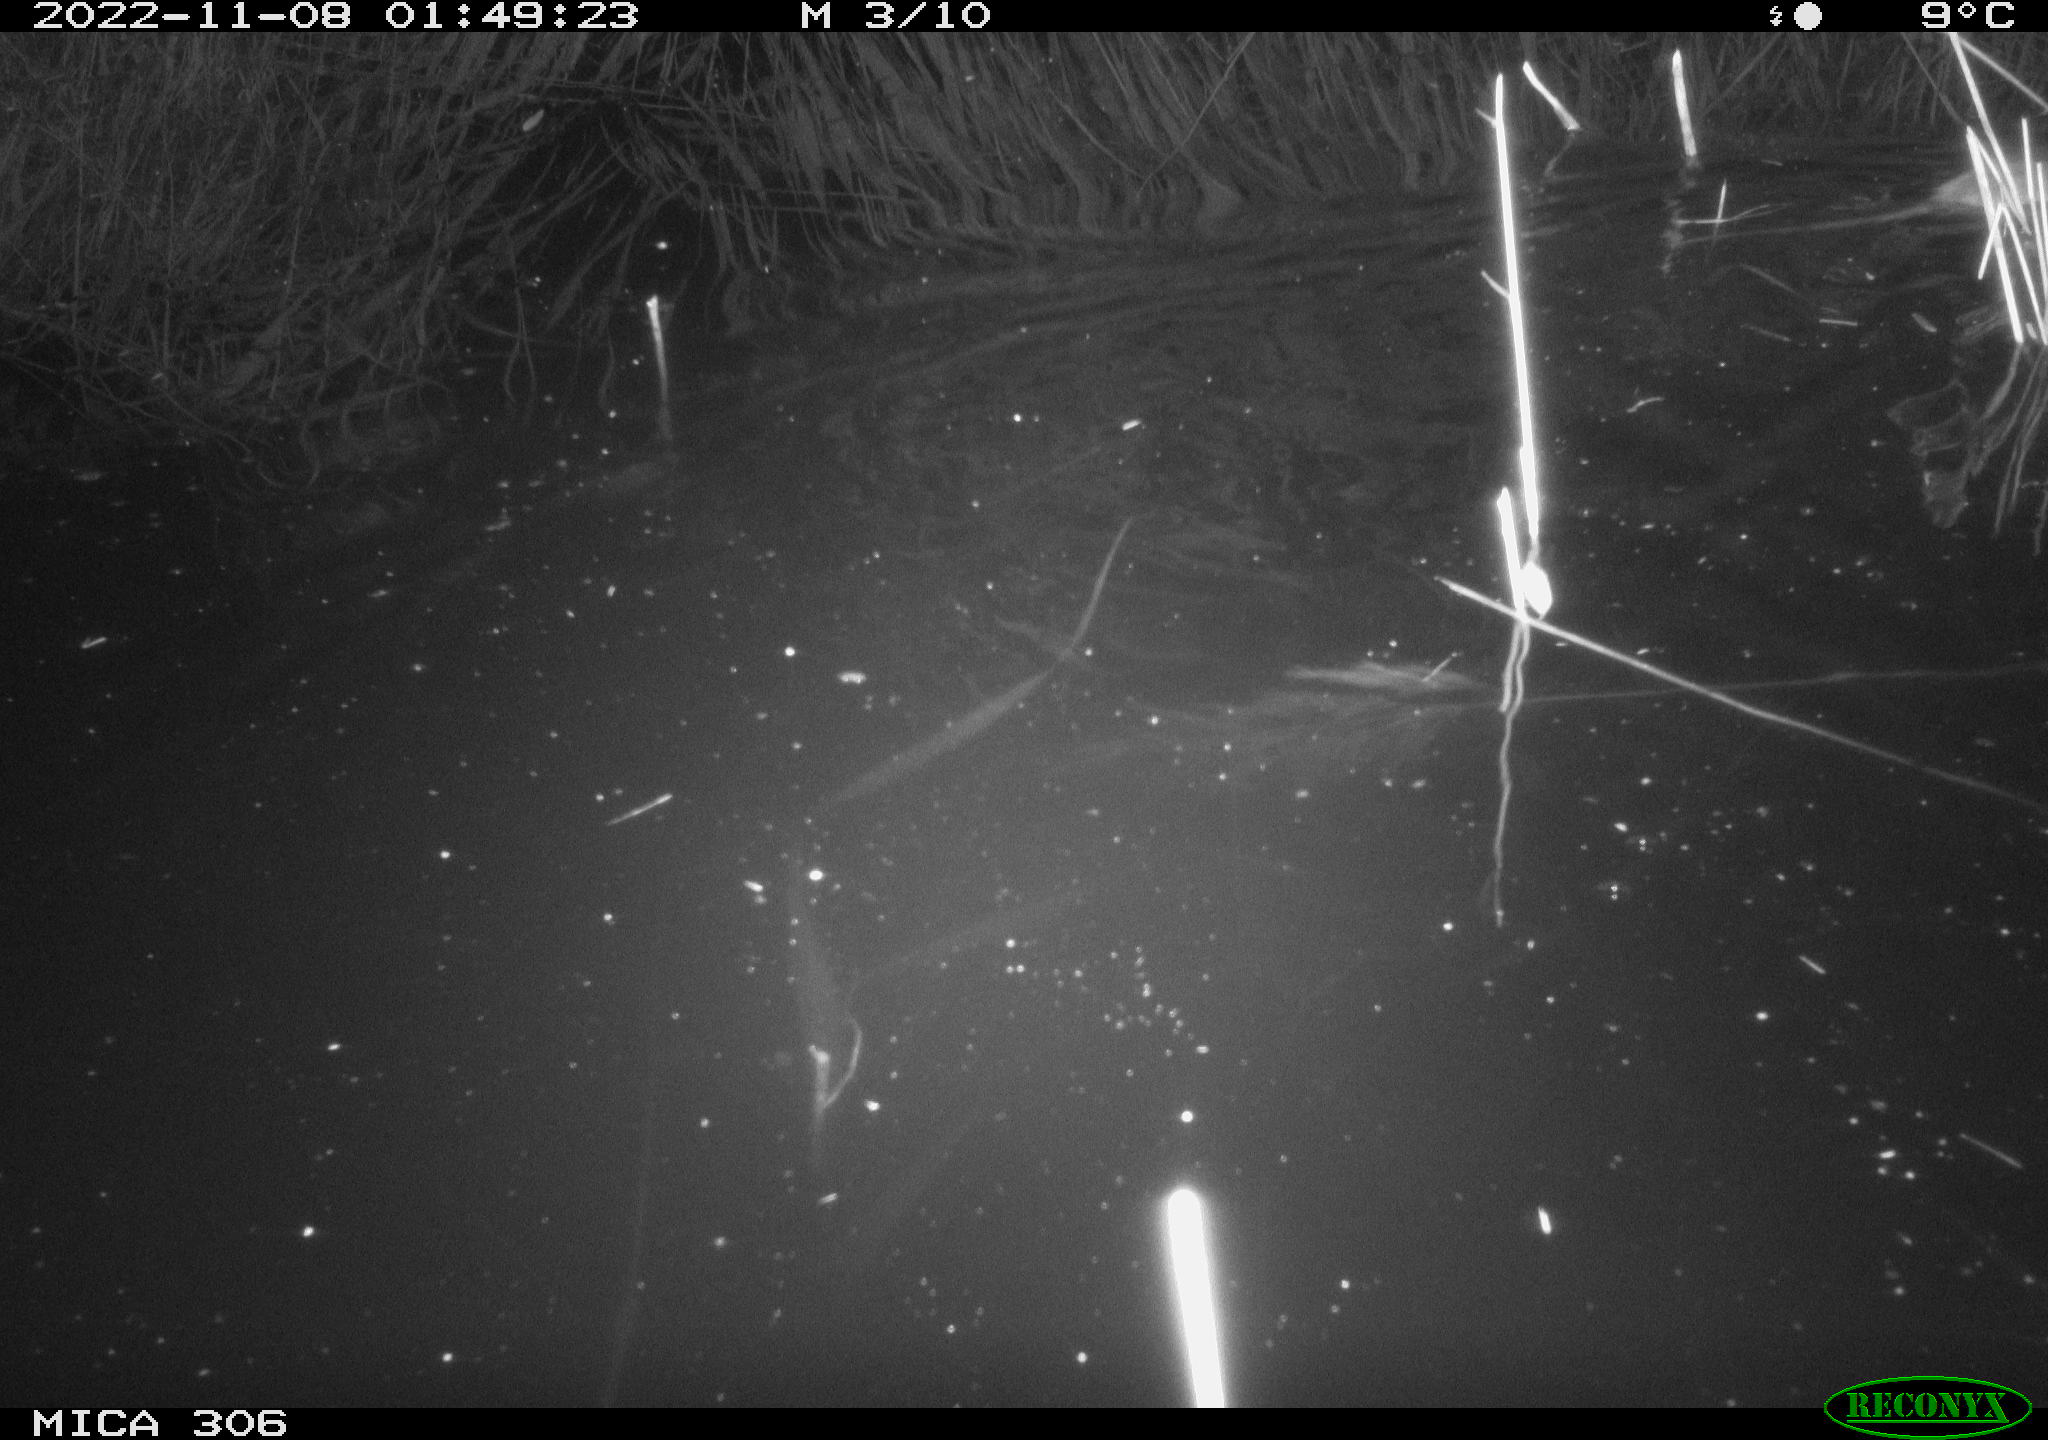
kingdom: Animalia
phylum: Chordata
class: Mammalia
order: Rodentia
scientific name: Rodentia
